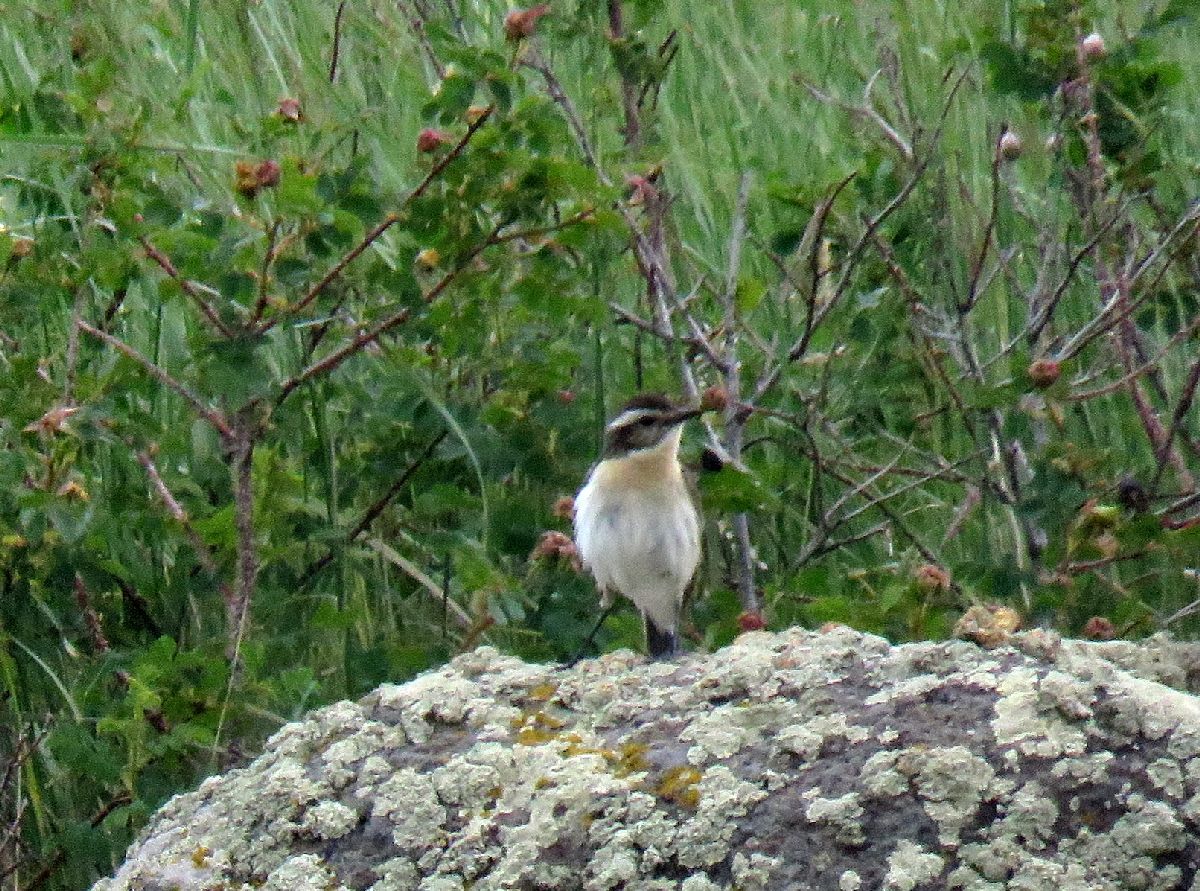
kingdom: Animalia
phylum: Chordata
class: Aves
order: Passeriformes
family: Muscicapidae
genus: Saxicola
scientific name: Saxicola rubetra
